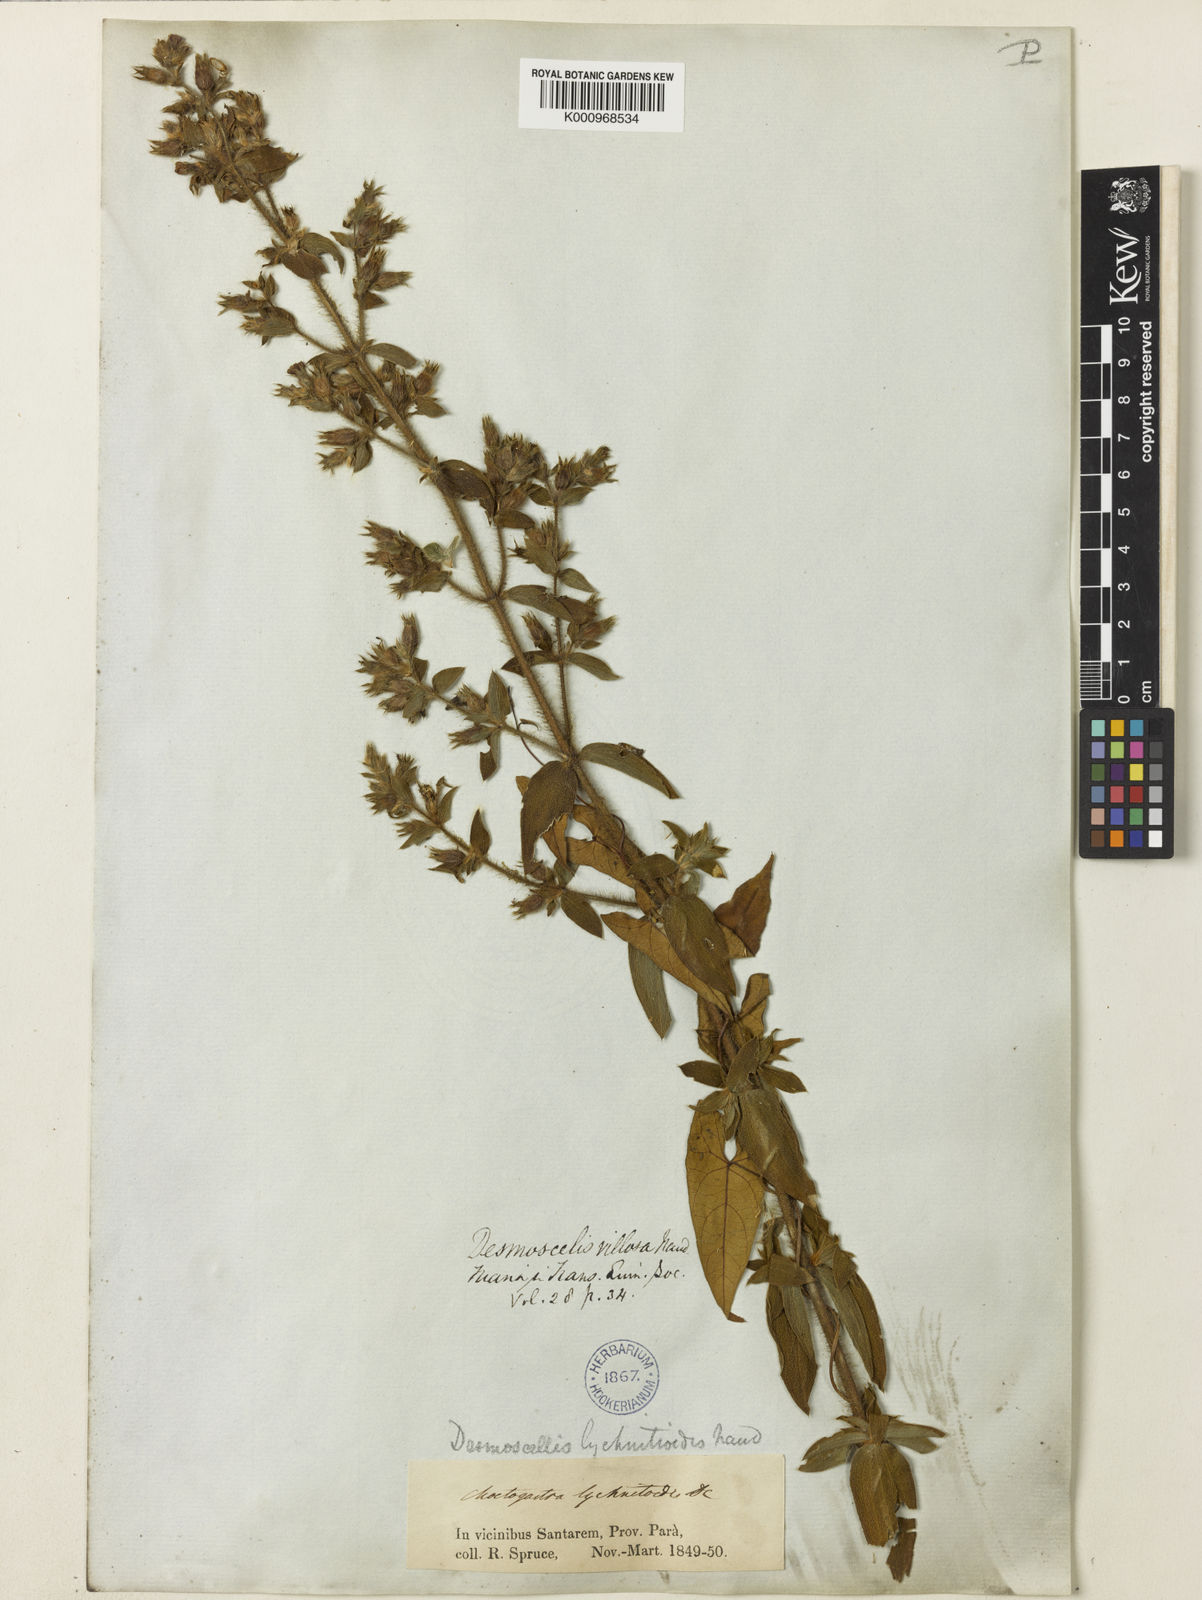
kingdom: Plantae
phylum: Tracheophyta
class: Magnoliopsida
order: Myrtales
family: Melastomataceae
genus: Desmoscelis
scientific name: Desmoscelis villosa
